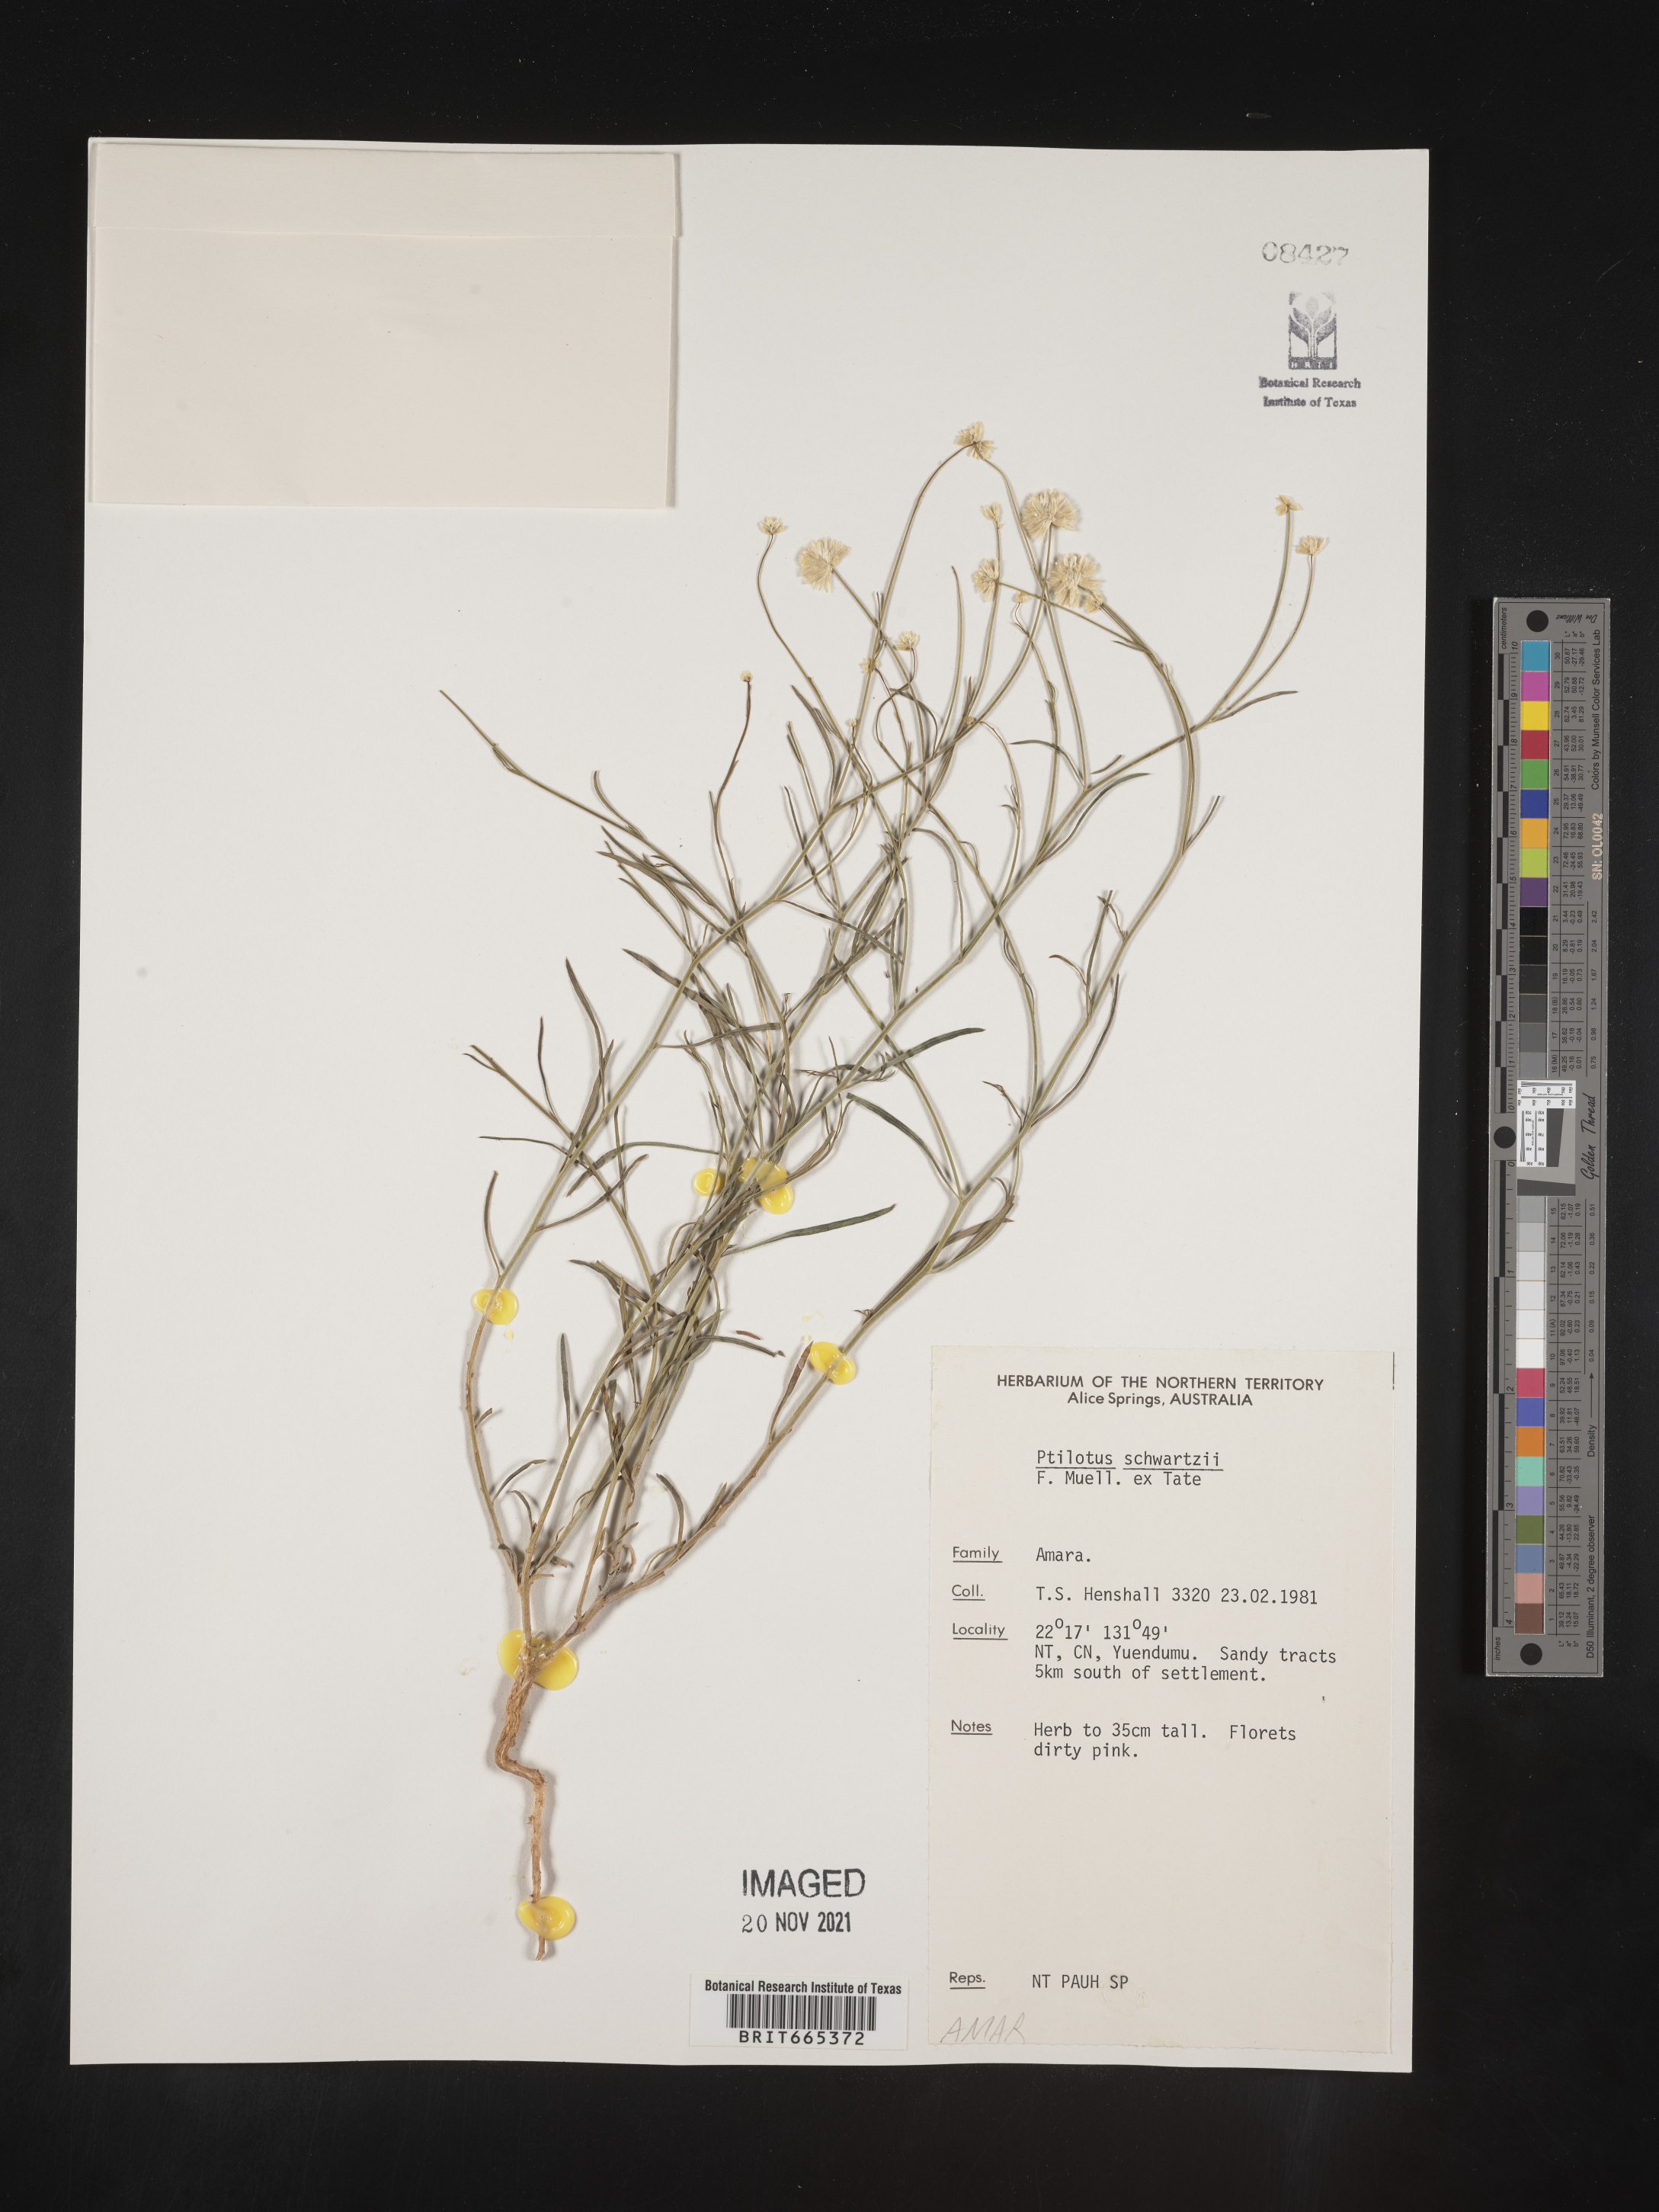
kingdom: Plantae
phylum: Tracheophyta
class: Magnoliopsida
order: Caryophyllales
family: Amaranthaceae
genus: Ptilotus
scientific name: Ptilotus
